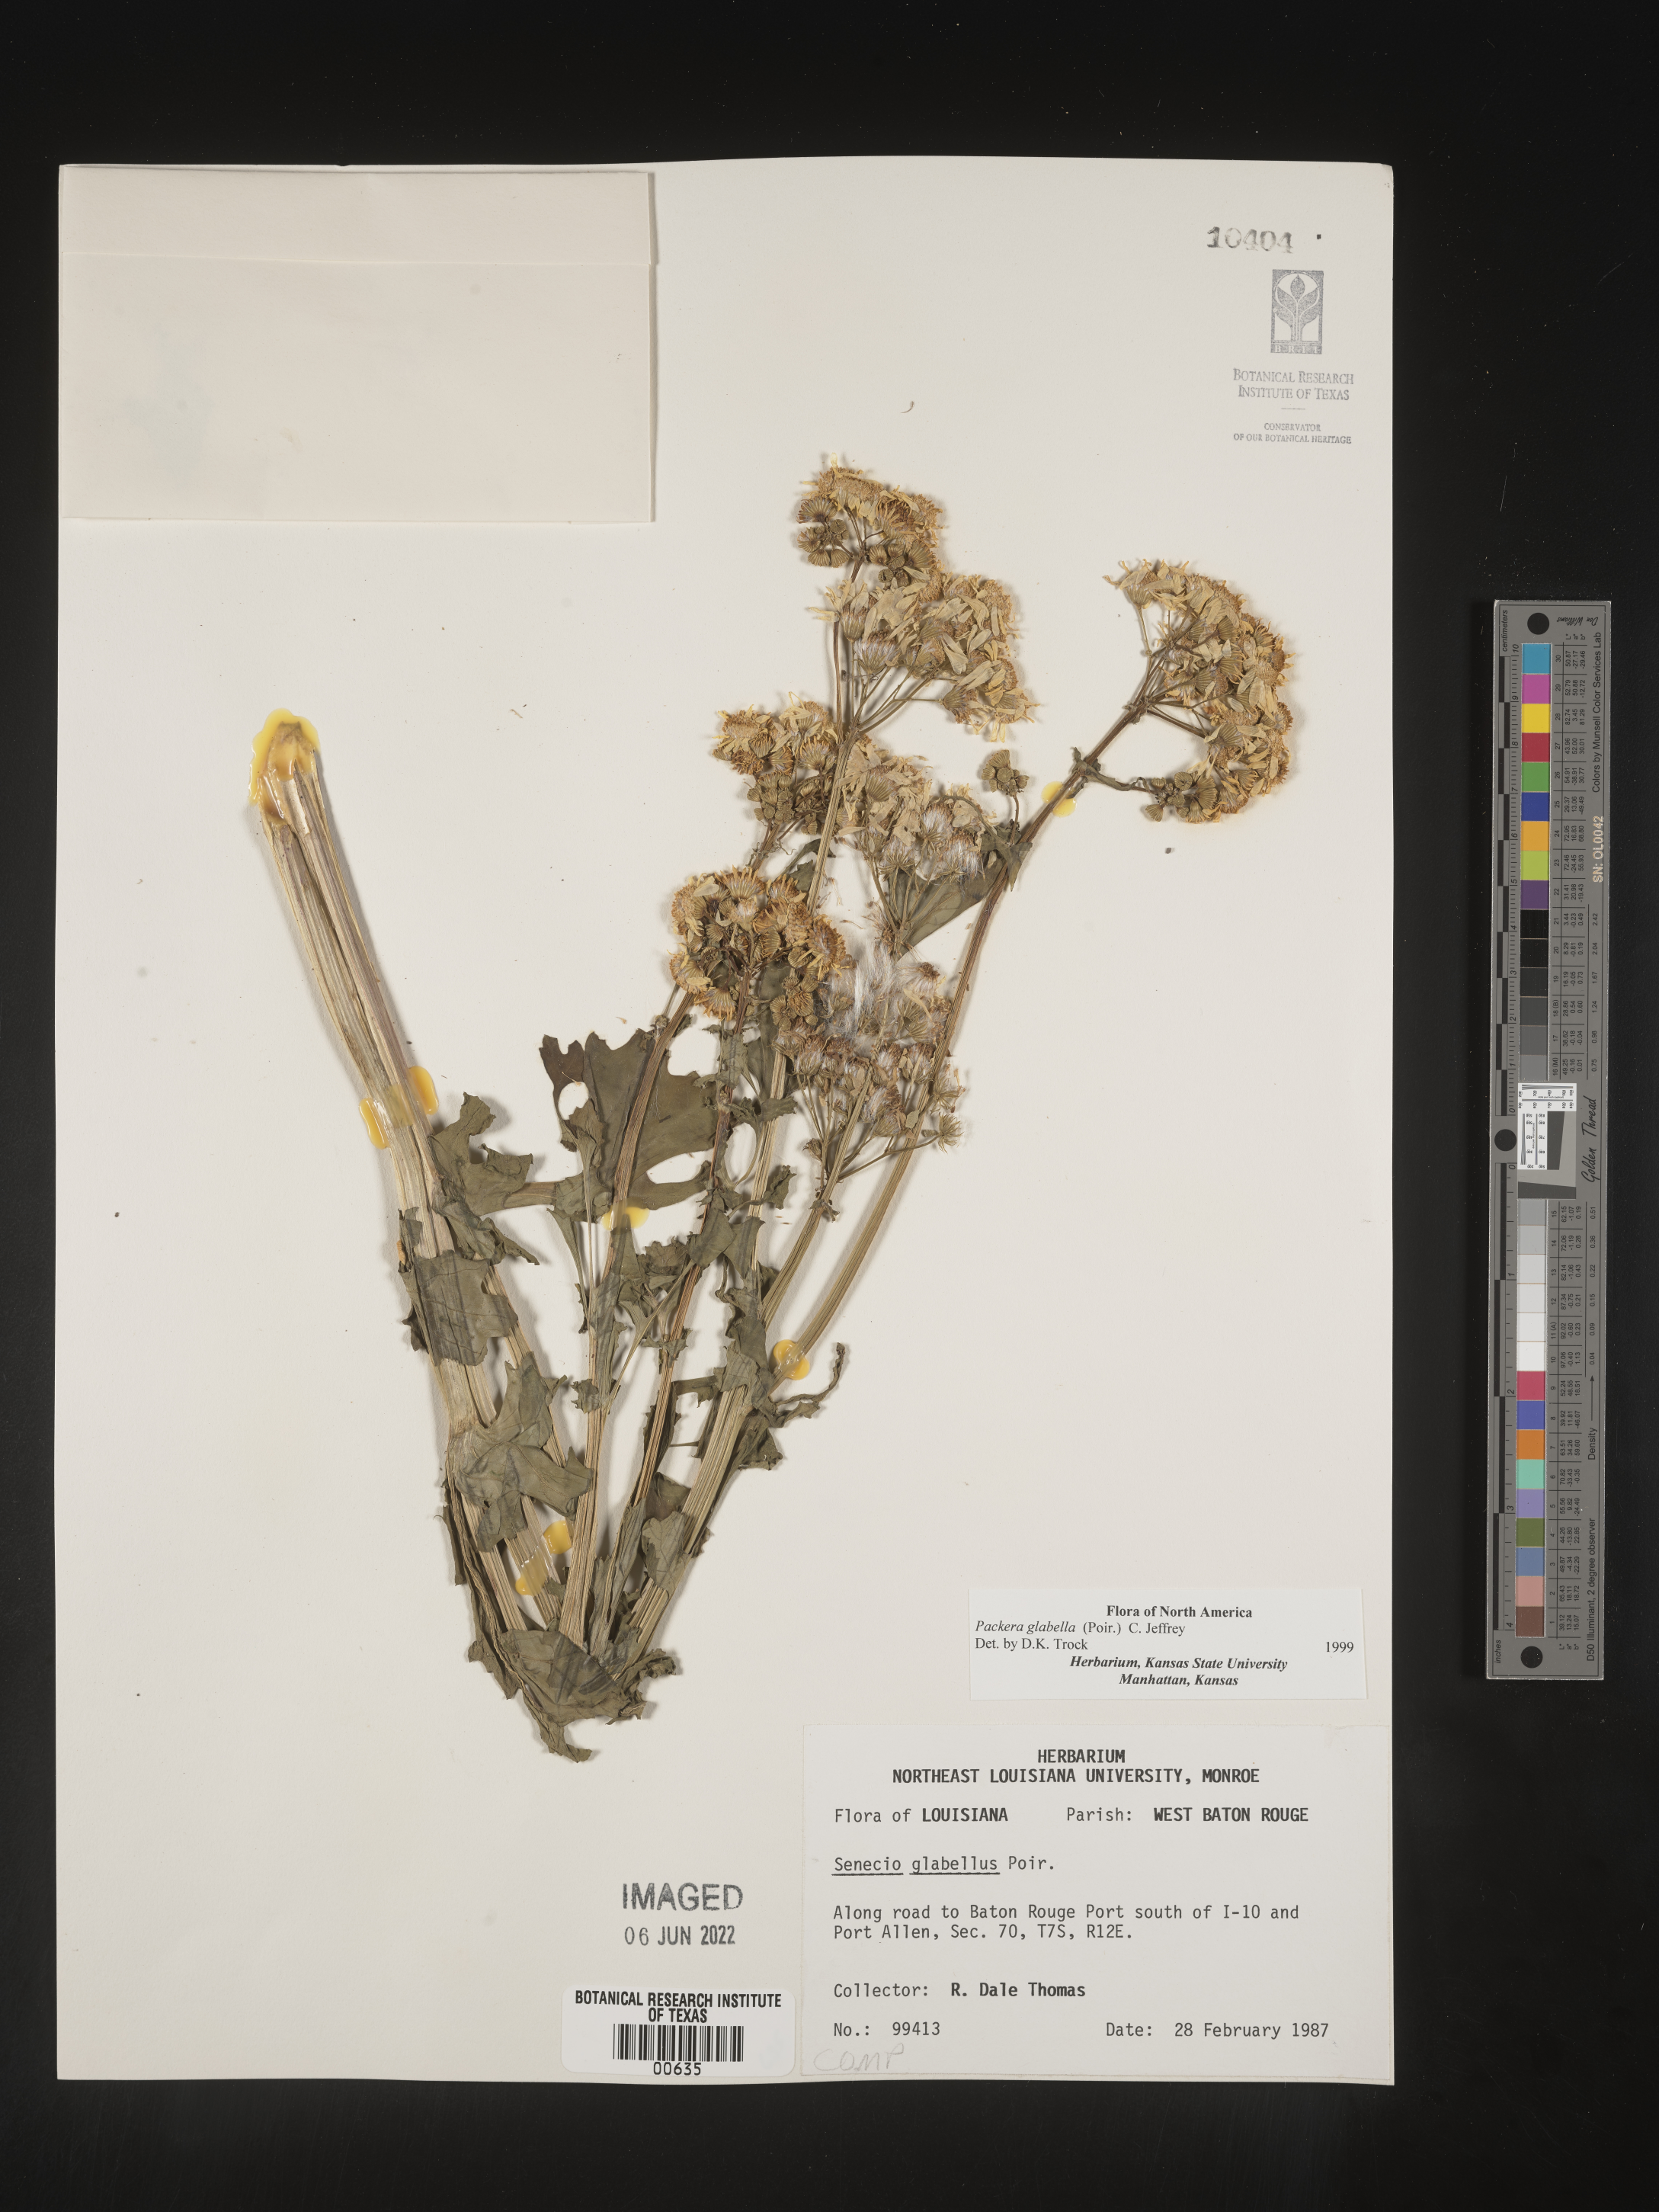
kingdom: Plantae
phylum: Tracheophyta
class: Magnoliopsida
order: Asterales
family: Asteraceae
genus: Packera
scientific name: Packera glabella
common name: Butterweed
